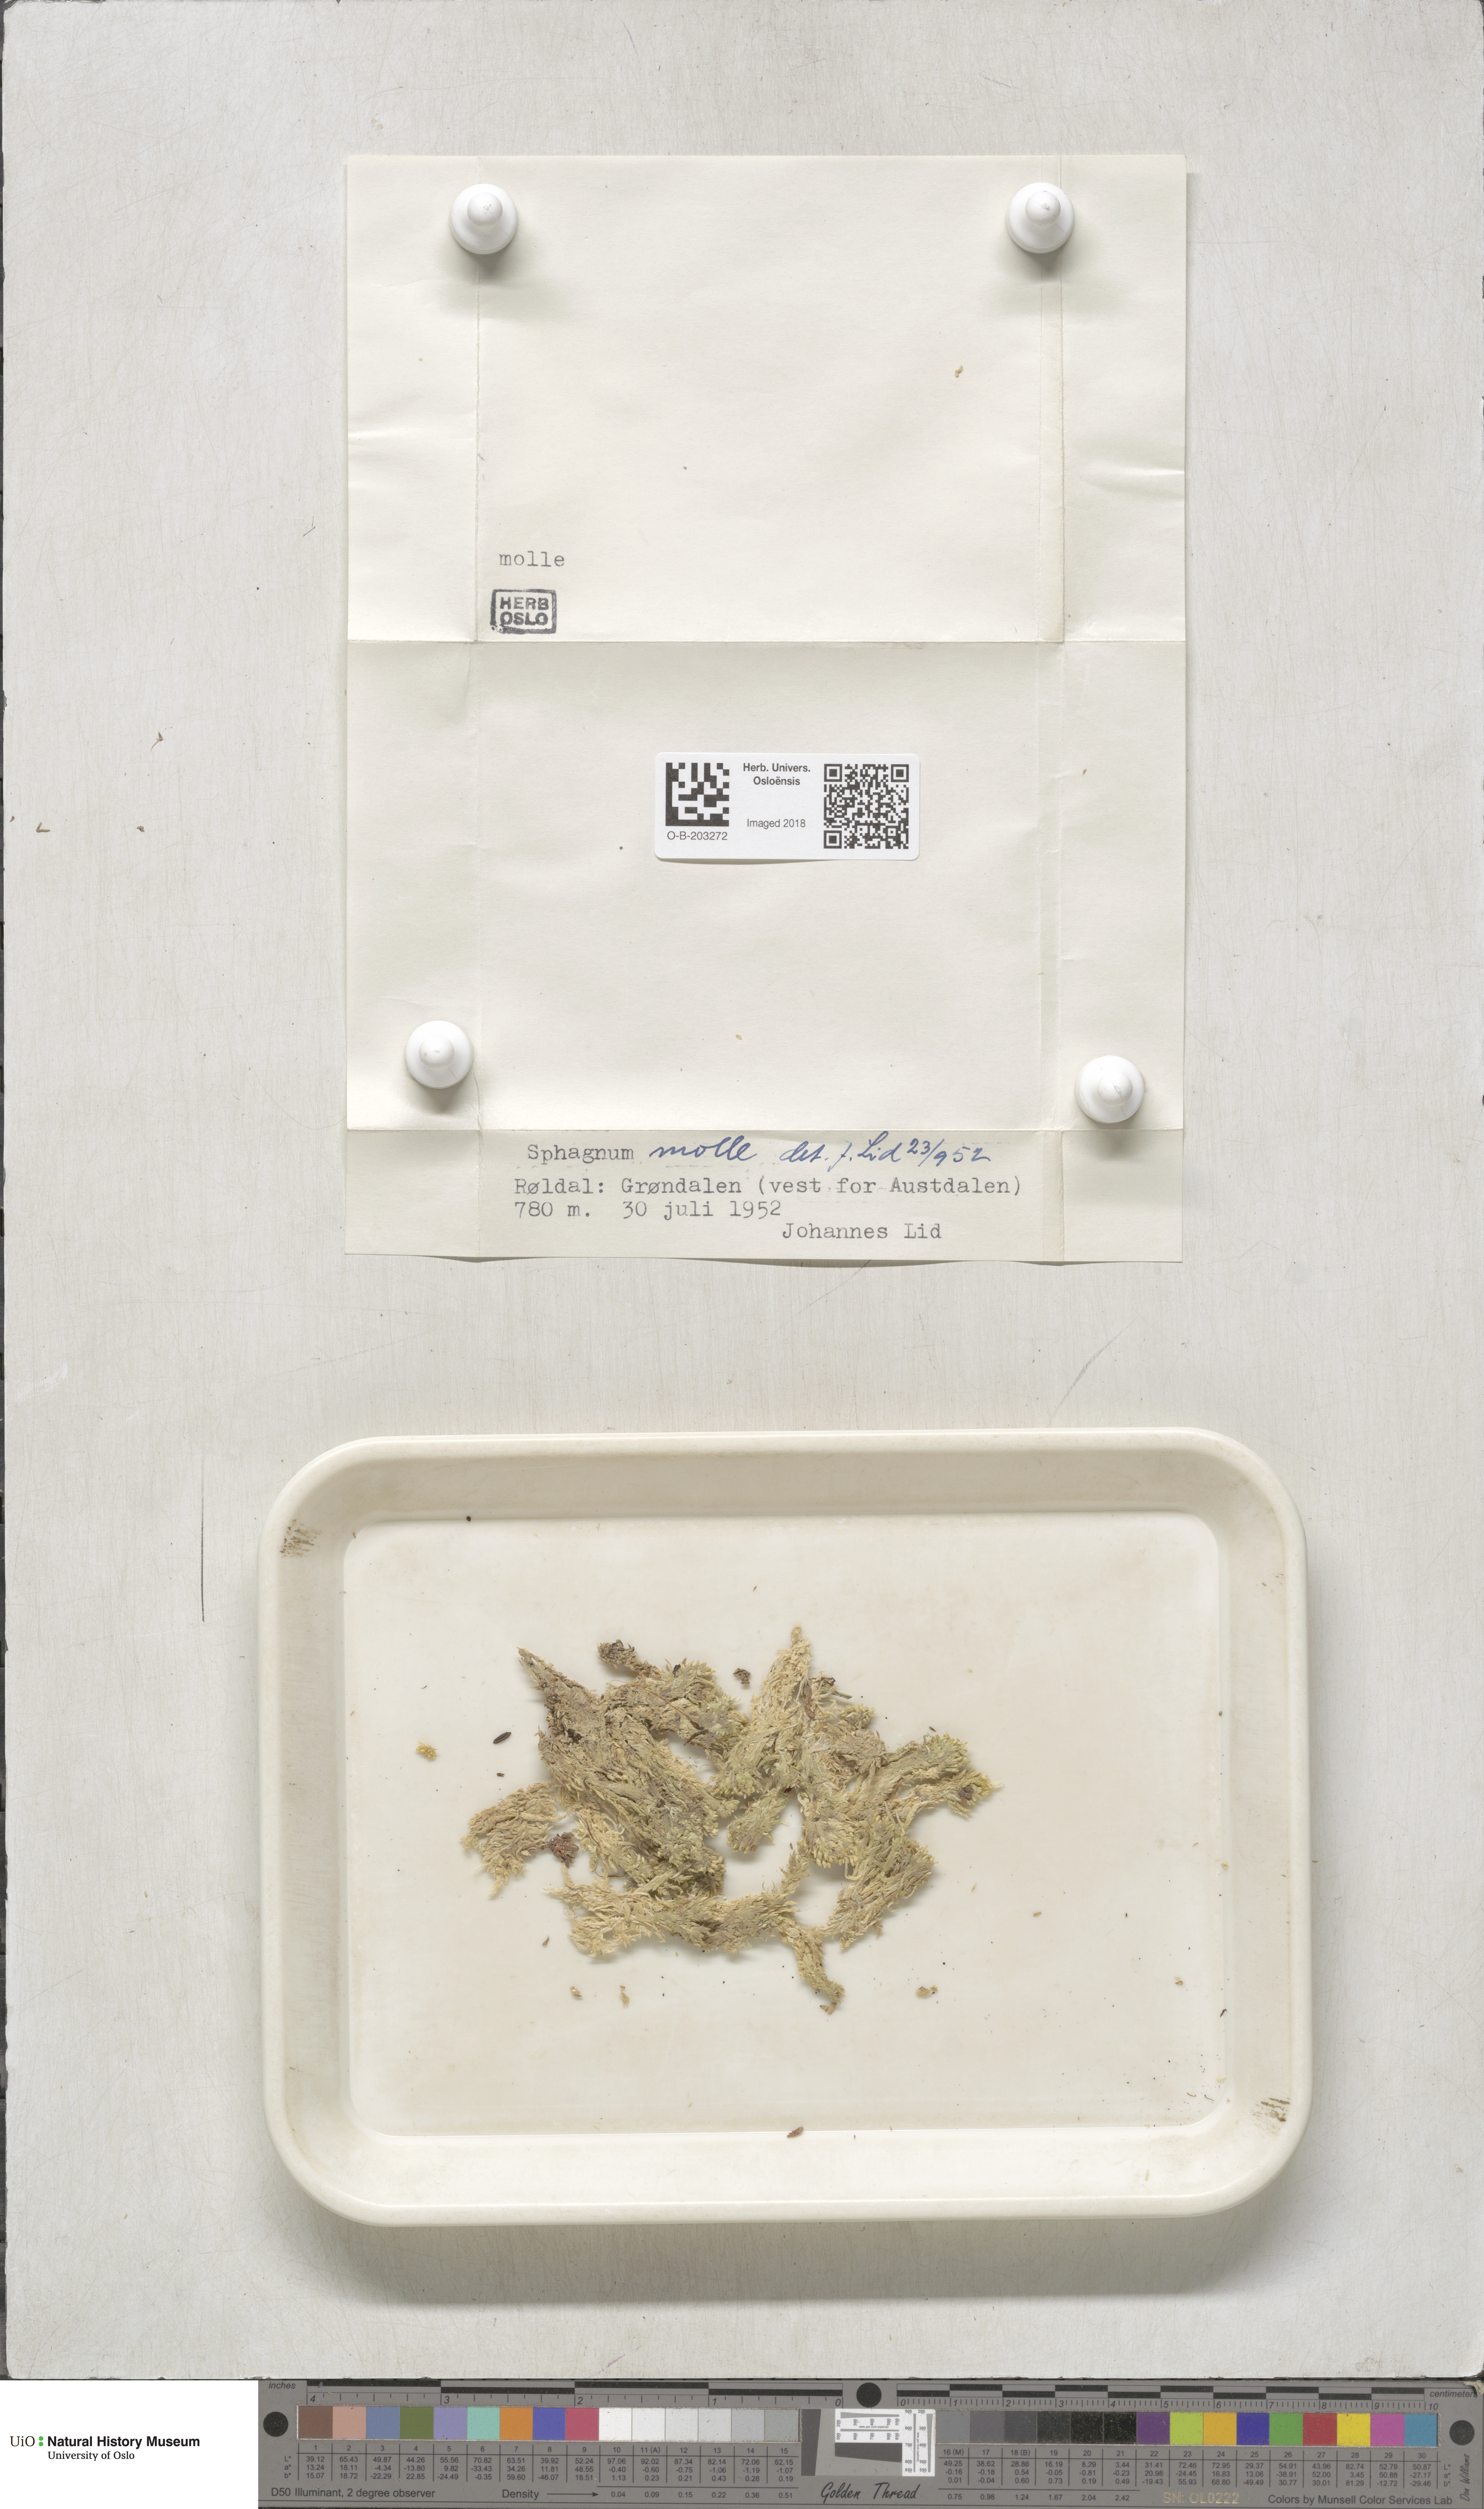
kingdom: Plantae
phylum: Bryophyta
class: Sphagnopsida
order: Sphagnales
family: Sphagnaceae
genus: Sphagnum
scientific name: Sphagnum molle
